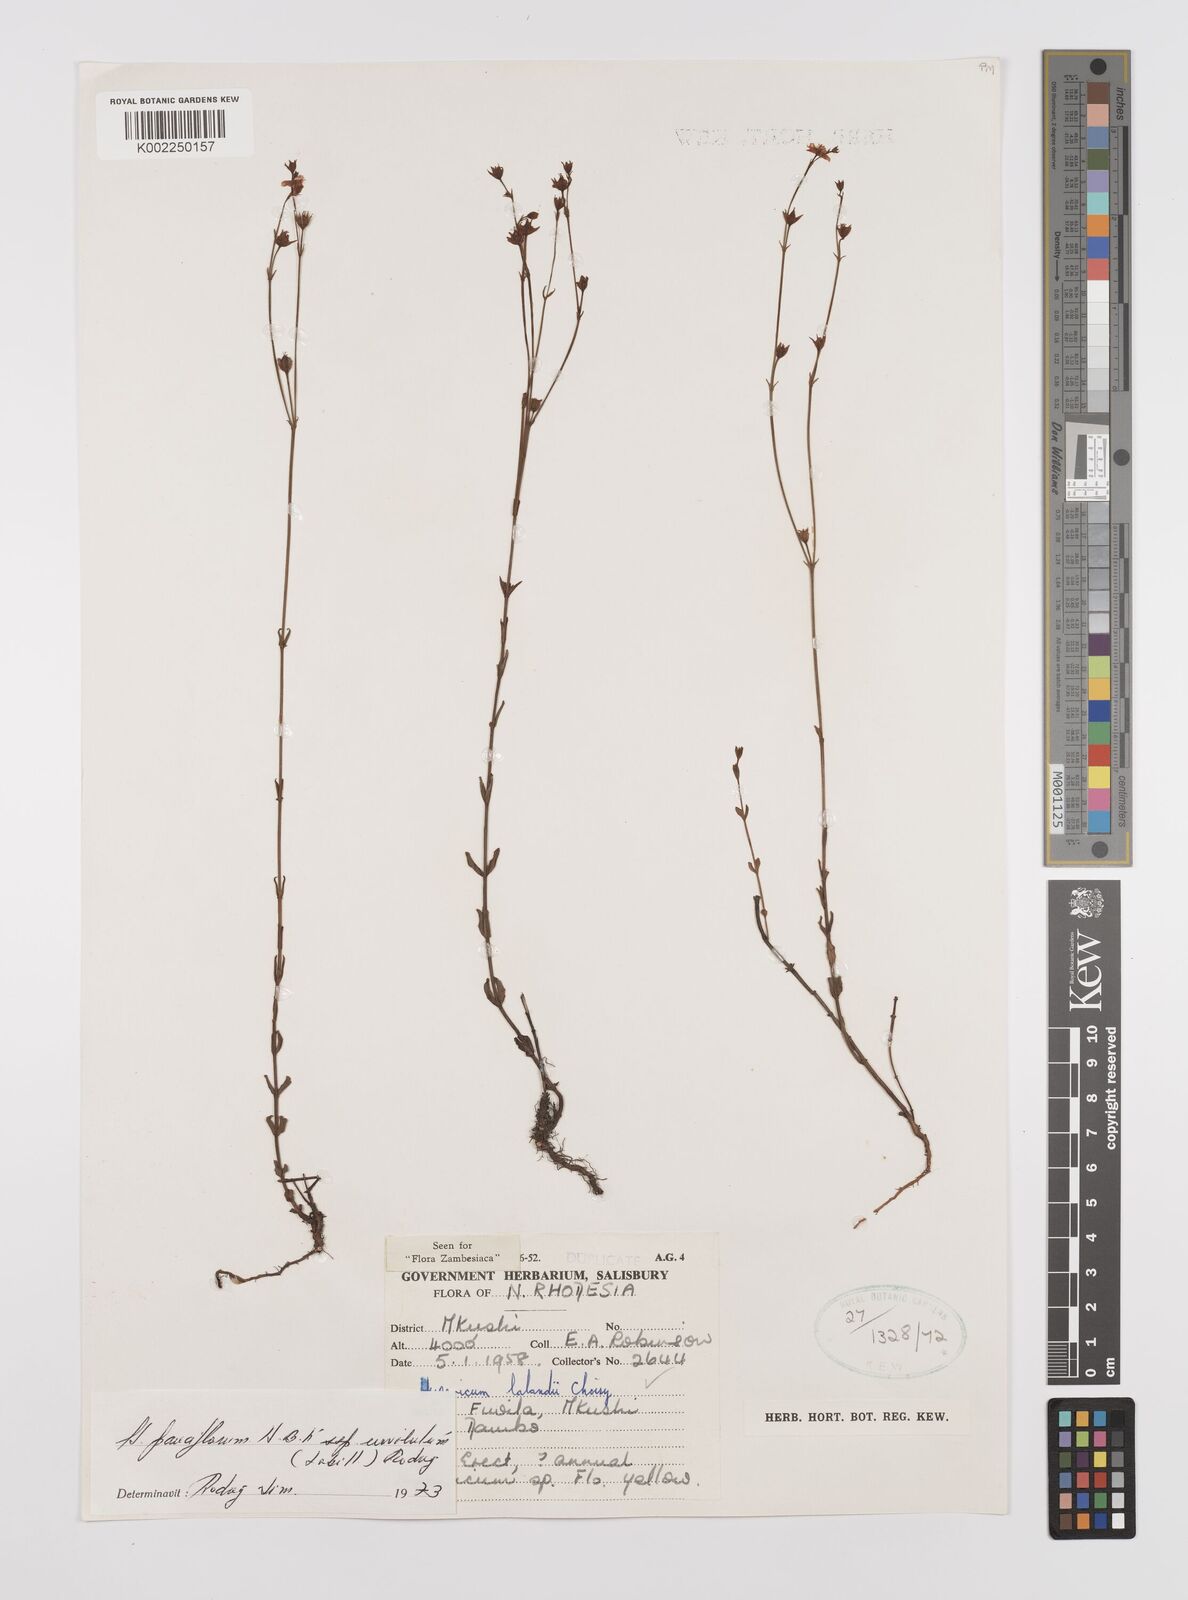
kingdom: Plantae
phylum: Tracheophyta
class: Magnoliopsida
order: Malpighiales
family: Hypericaceae
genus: Hypericum
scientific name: Hypericum lalandii
